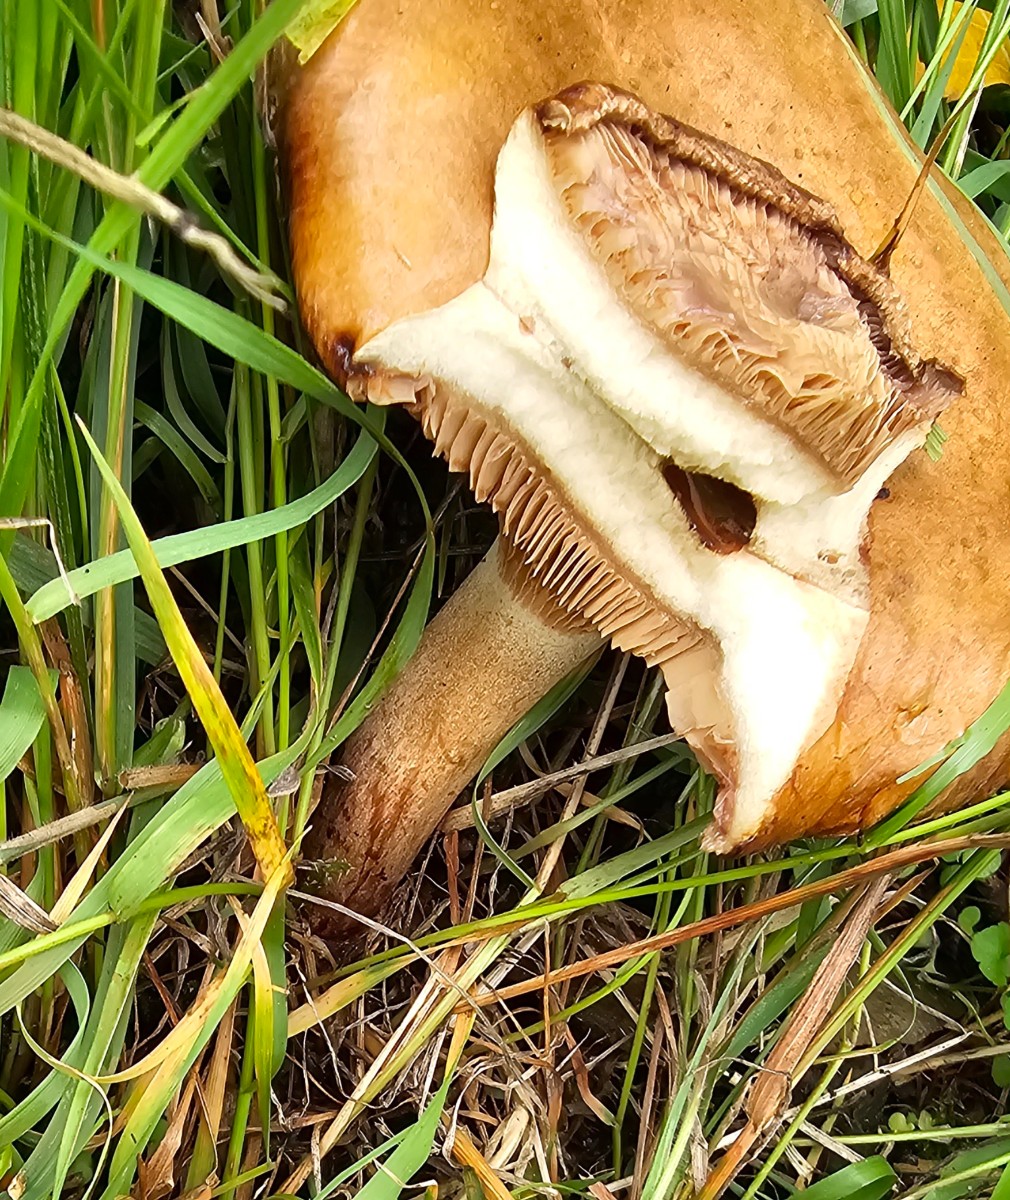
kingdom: Fungi
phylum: Basidiomycota
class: Agaricomycetes
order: Boletales
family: Paxillaceae
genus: Paxillus
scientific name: Paxillus involutus
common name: almindelig netbladhat
